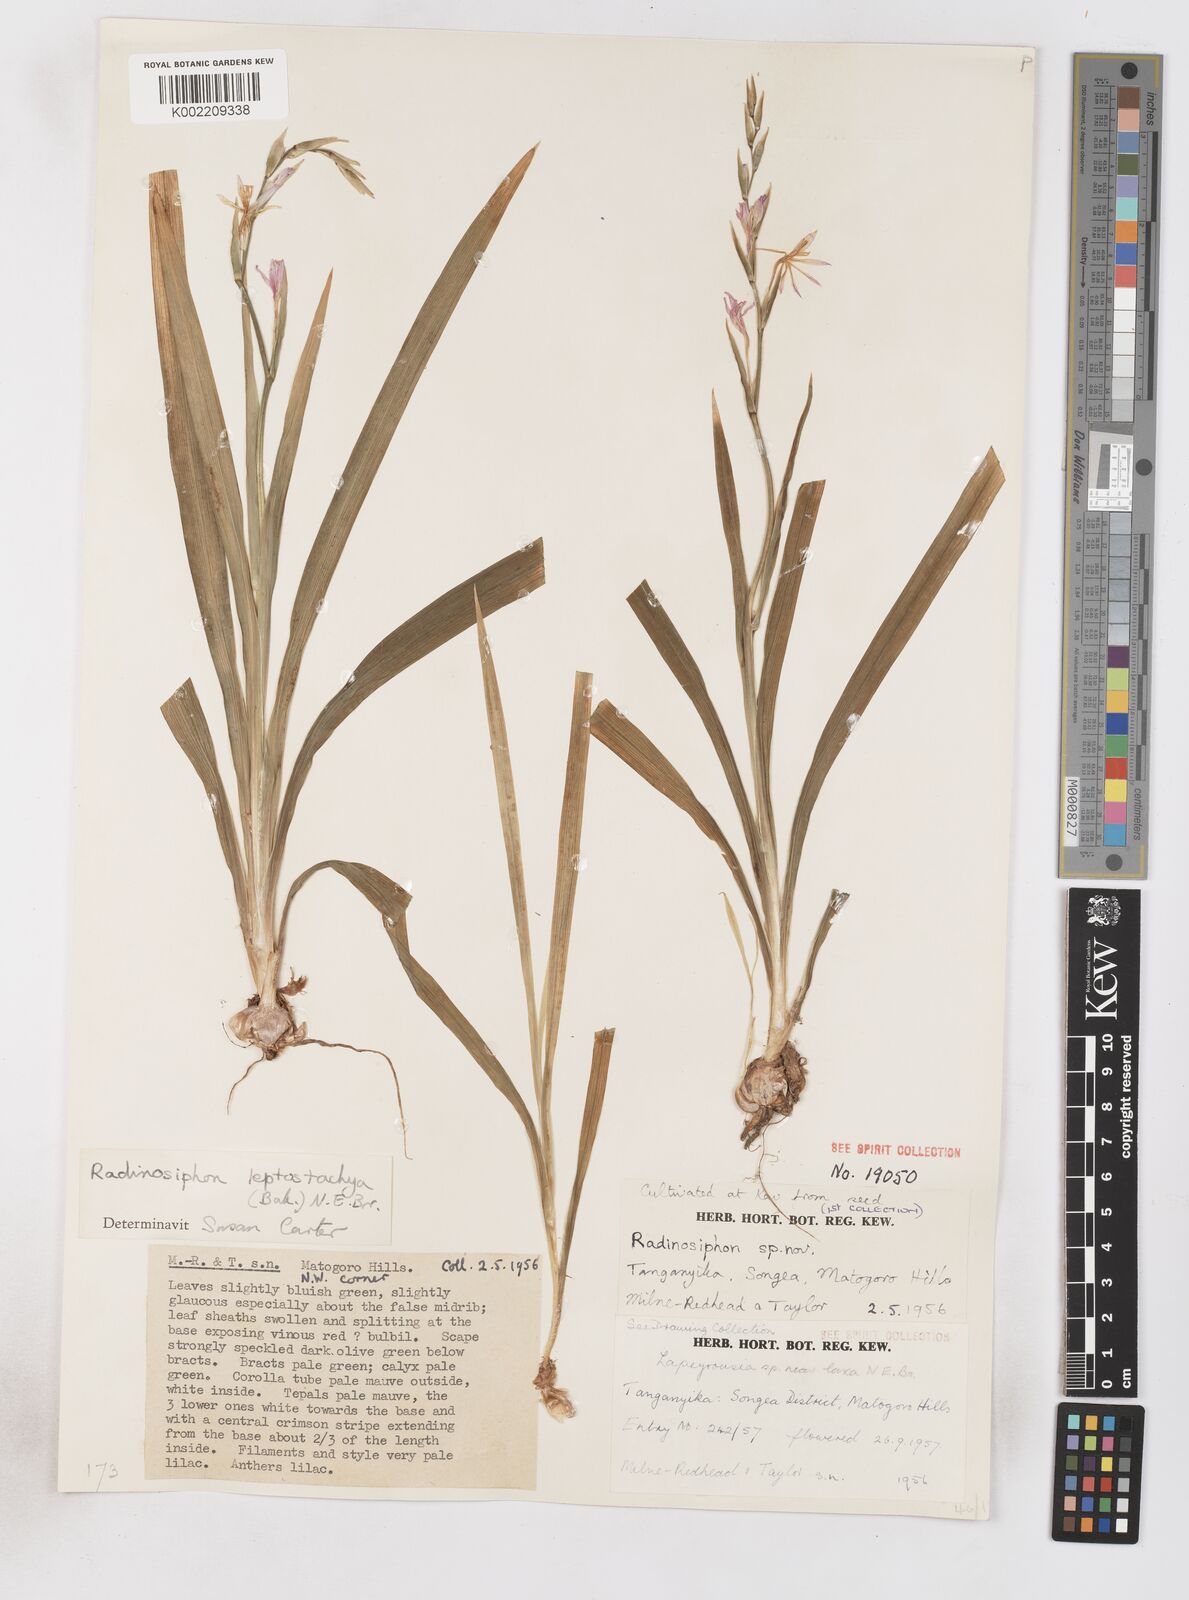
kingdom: Plantae
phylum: Tracheophyta
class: Liliopsida
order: Asparagales
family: Iridaceae
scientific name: Iridaceae
